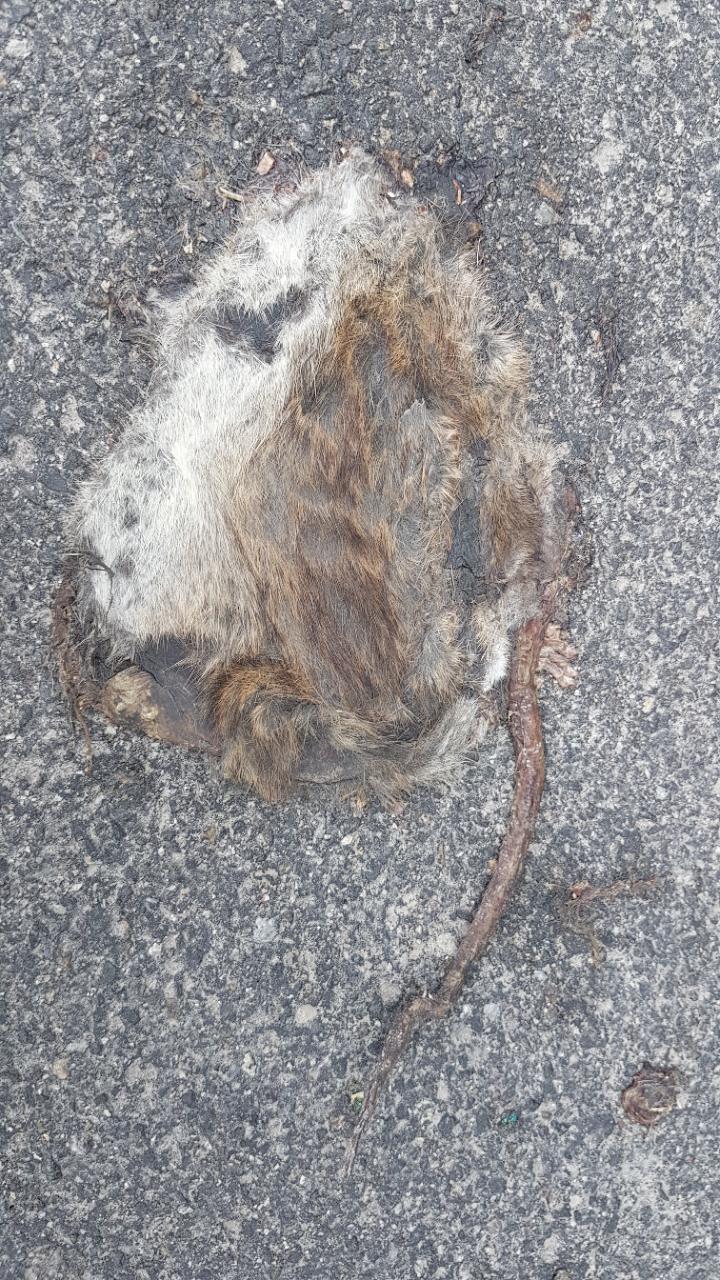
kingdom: Animalia
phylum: Chordata
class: Mammalia
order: Rodentia
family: Muridae
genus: Rattus
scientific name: Rattus norvegicus
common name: Brown rat
